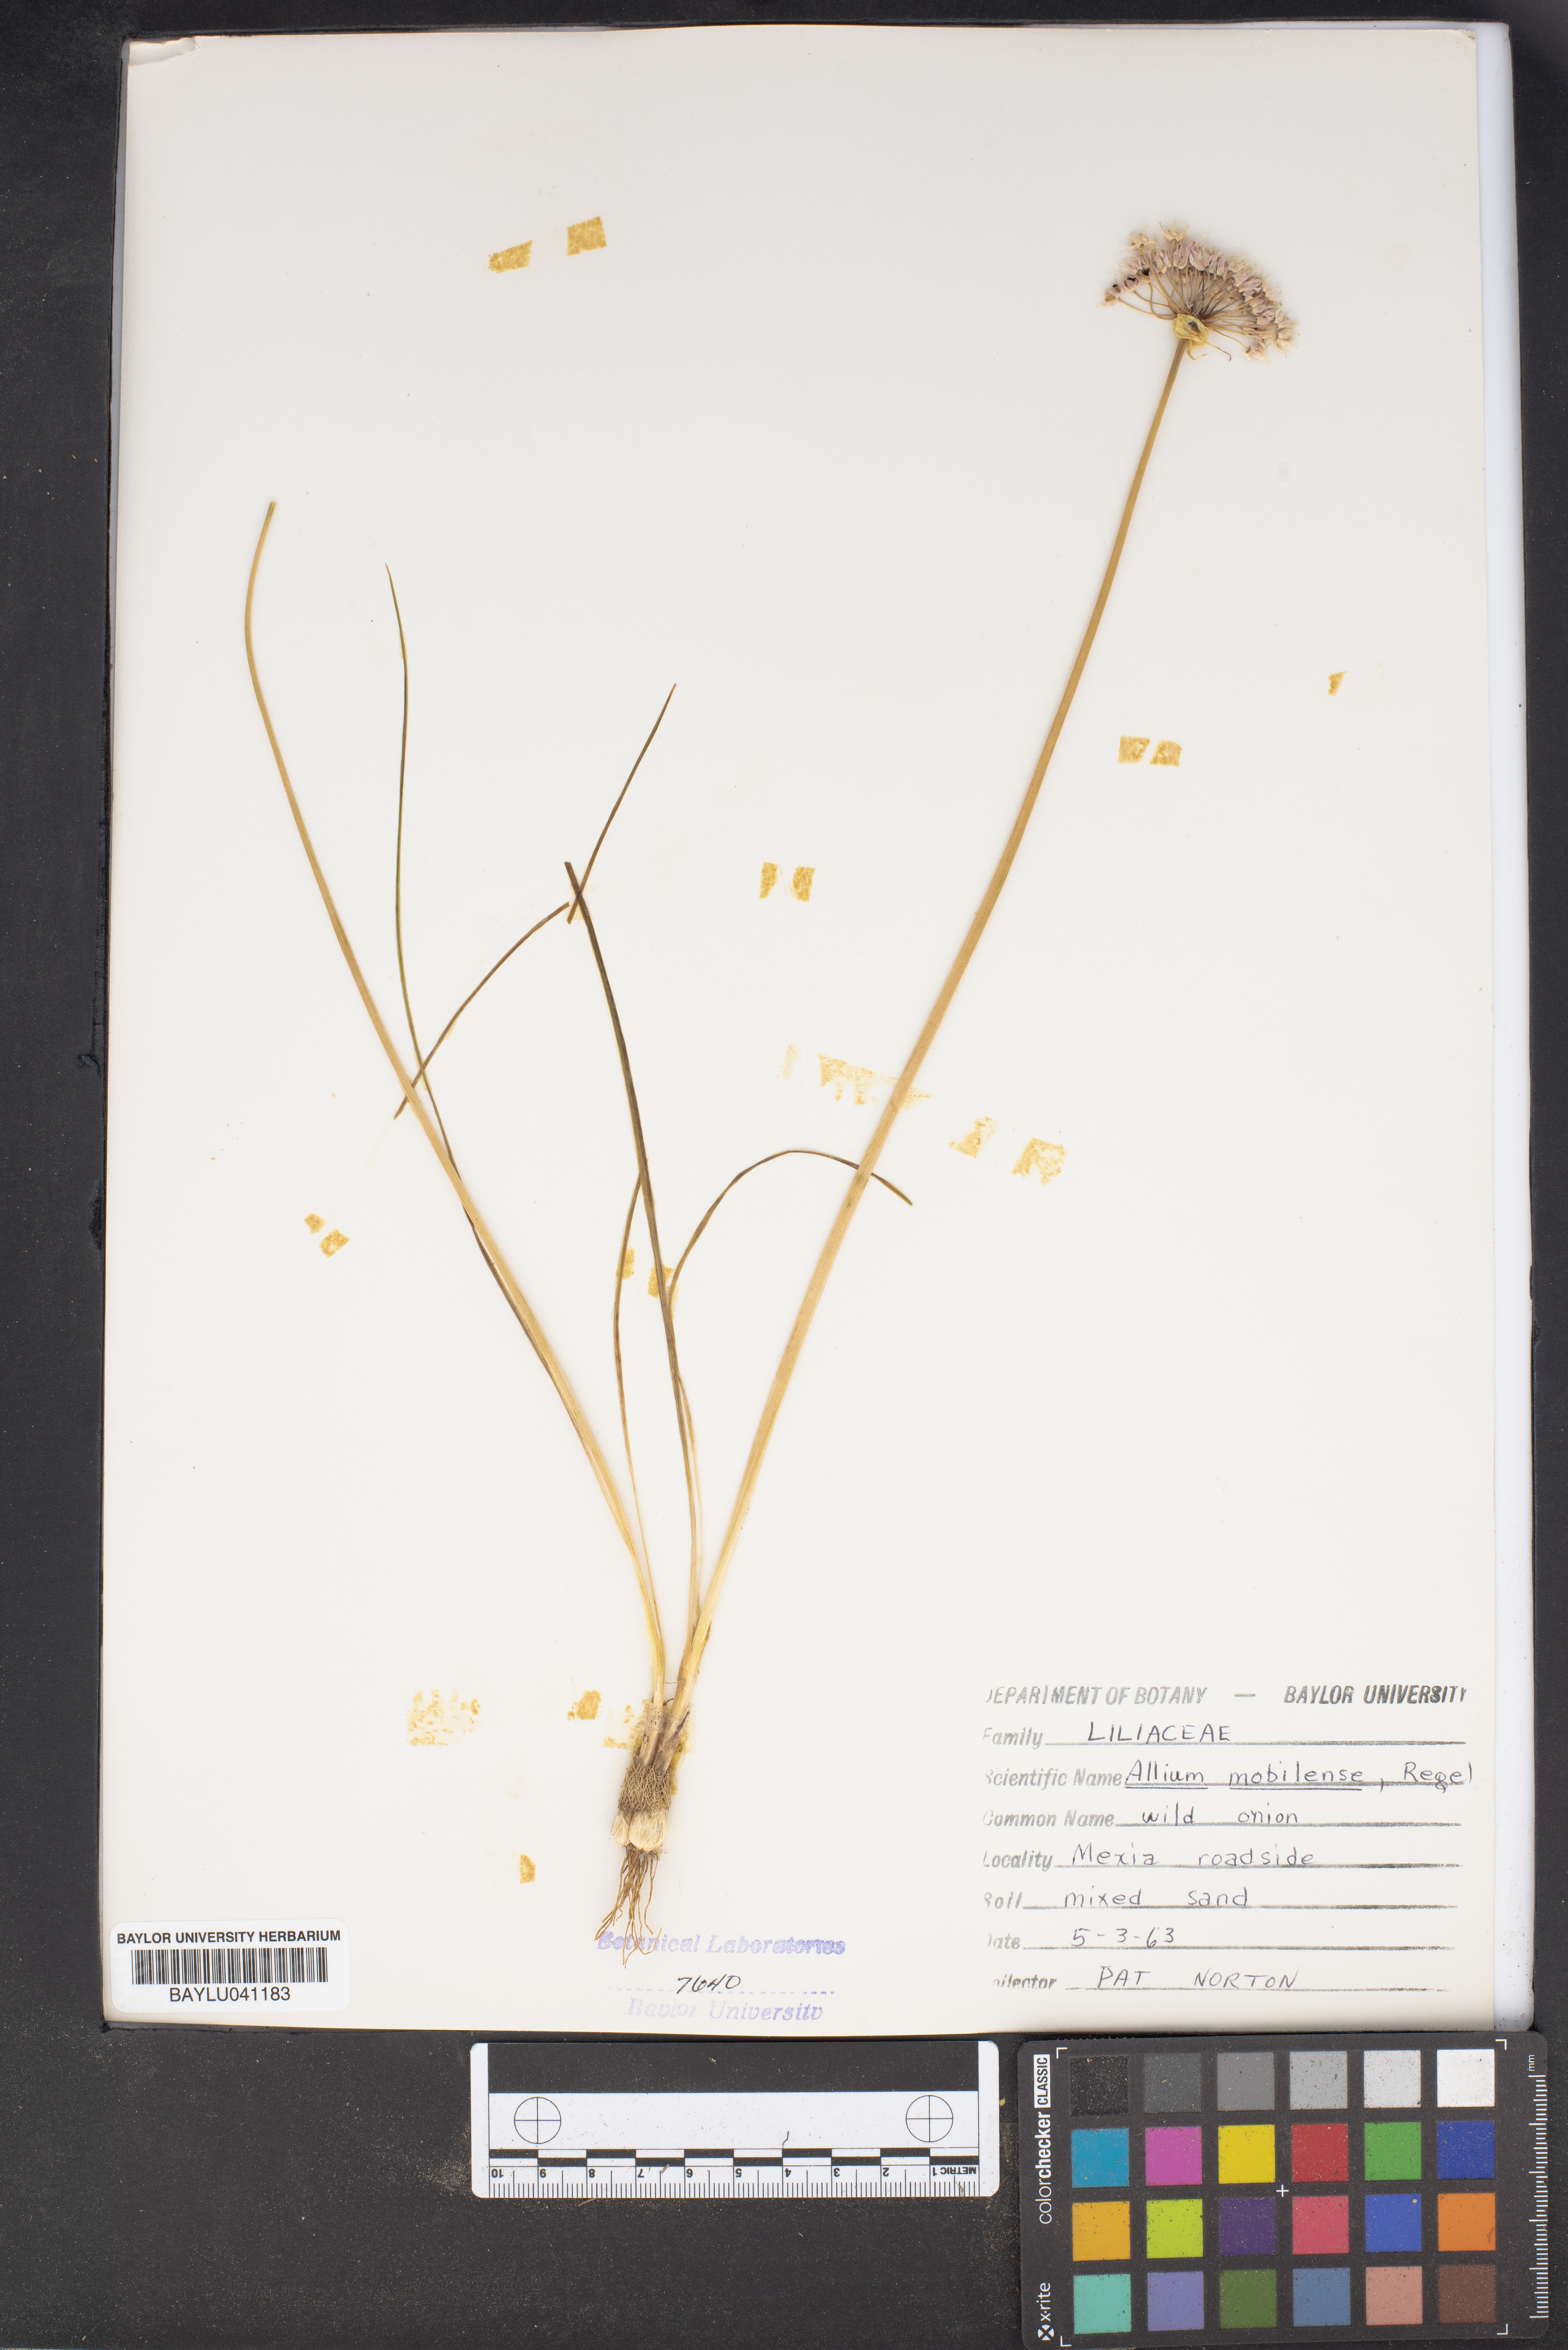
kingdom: Plantae
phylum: Tracheophyta
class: Liliopsida
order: Asparagales
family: Amaryllidaceae
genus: Allium
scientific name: Allium canadense
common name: Meadow garlic
